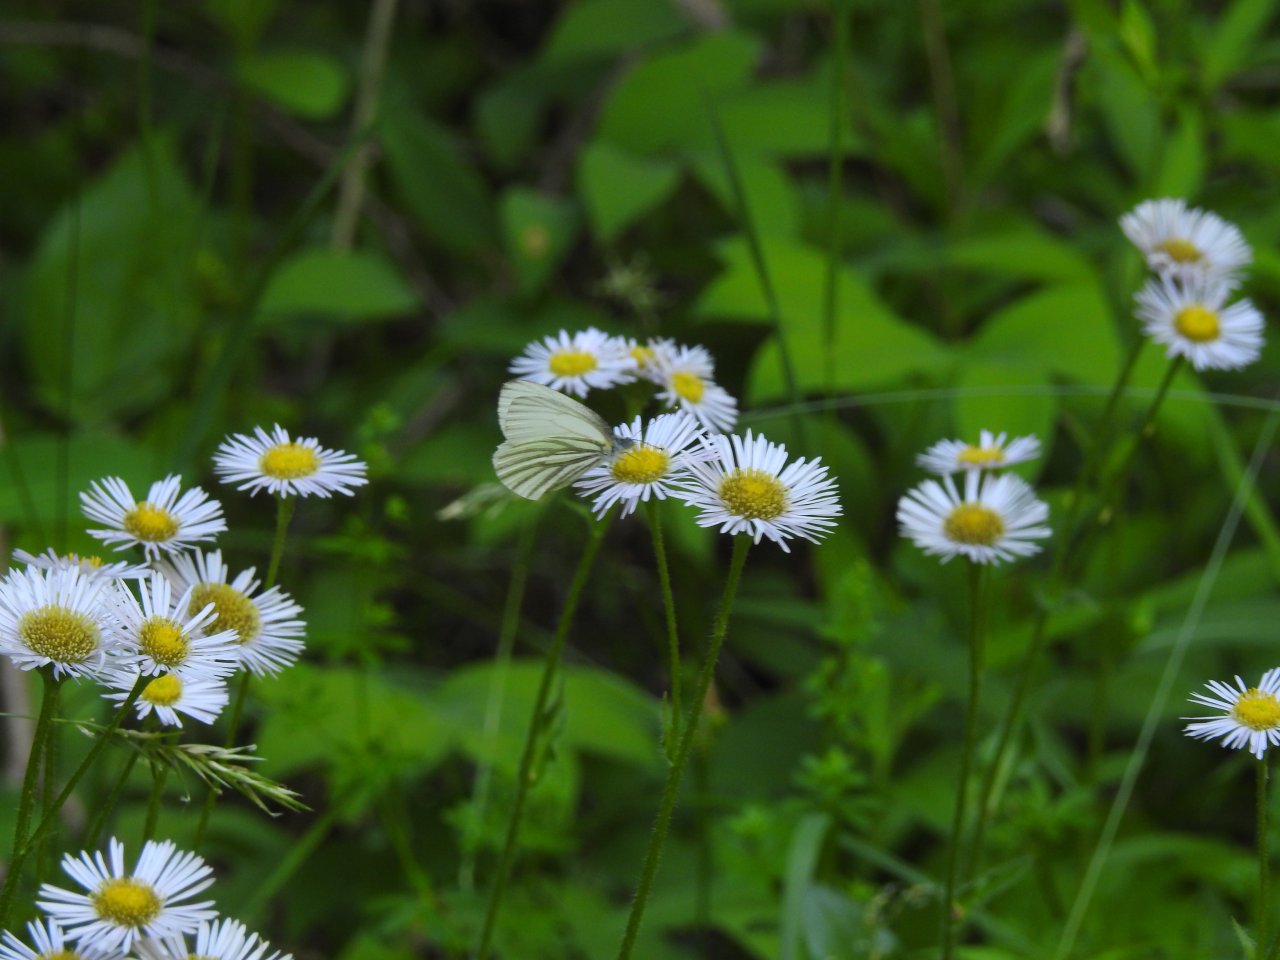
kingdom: Animalia
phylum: Arthropoda
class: Insecta
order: Lepidoptera
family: Pieridae
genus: Pieris
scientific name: Pieris oleracea
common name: Mustard White
